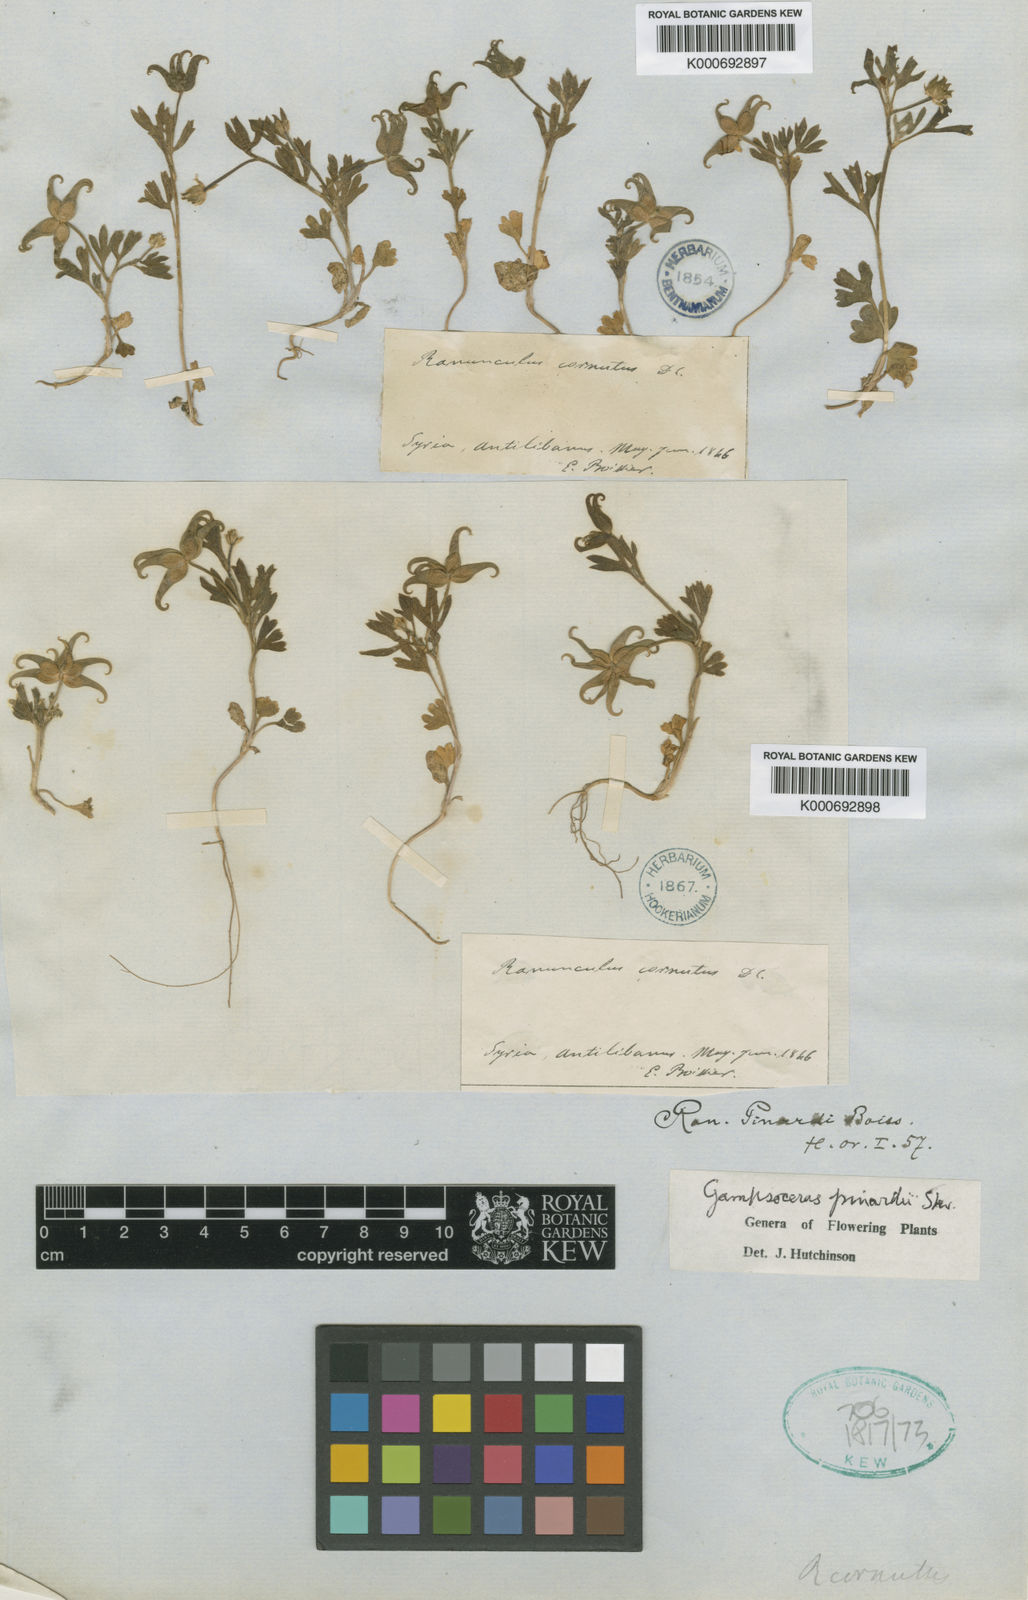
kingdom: Plantae
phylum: Tracheophyta
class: Magnoliopsida
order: Ranunculales
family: Ranunculaceae
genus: Ranunculus
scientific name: Ranunculus cornutus
